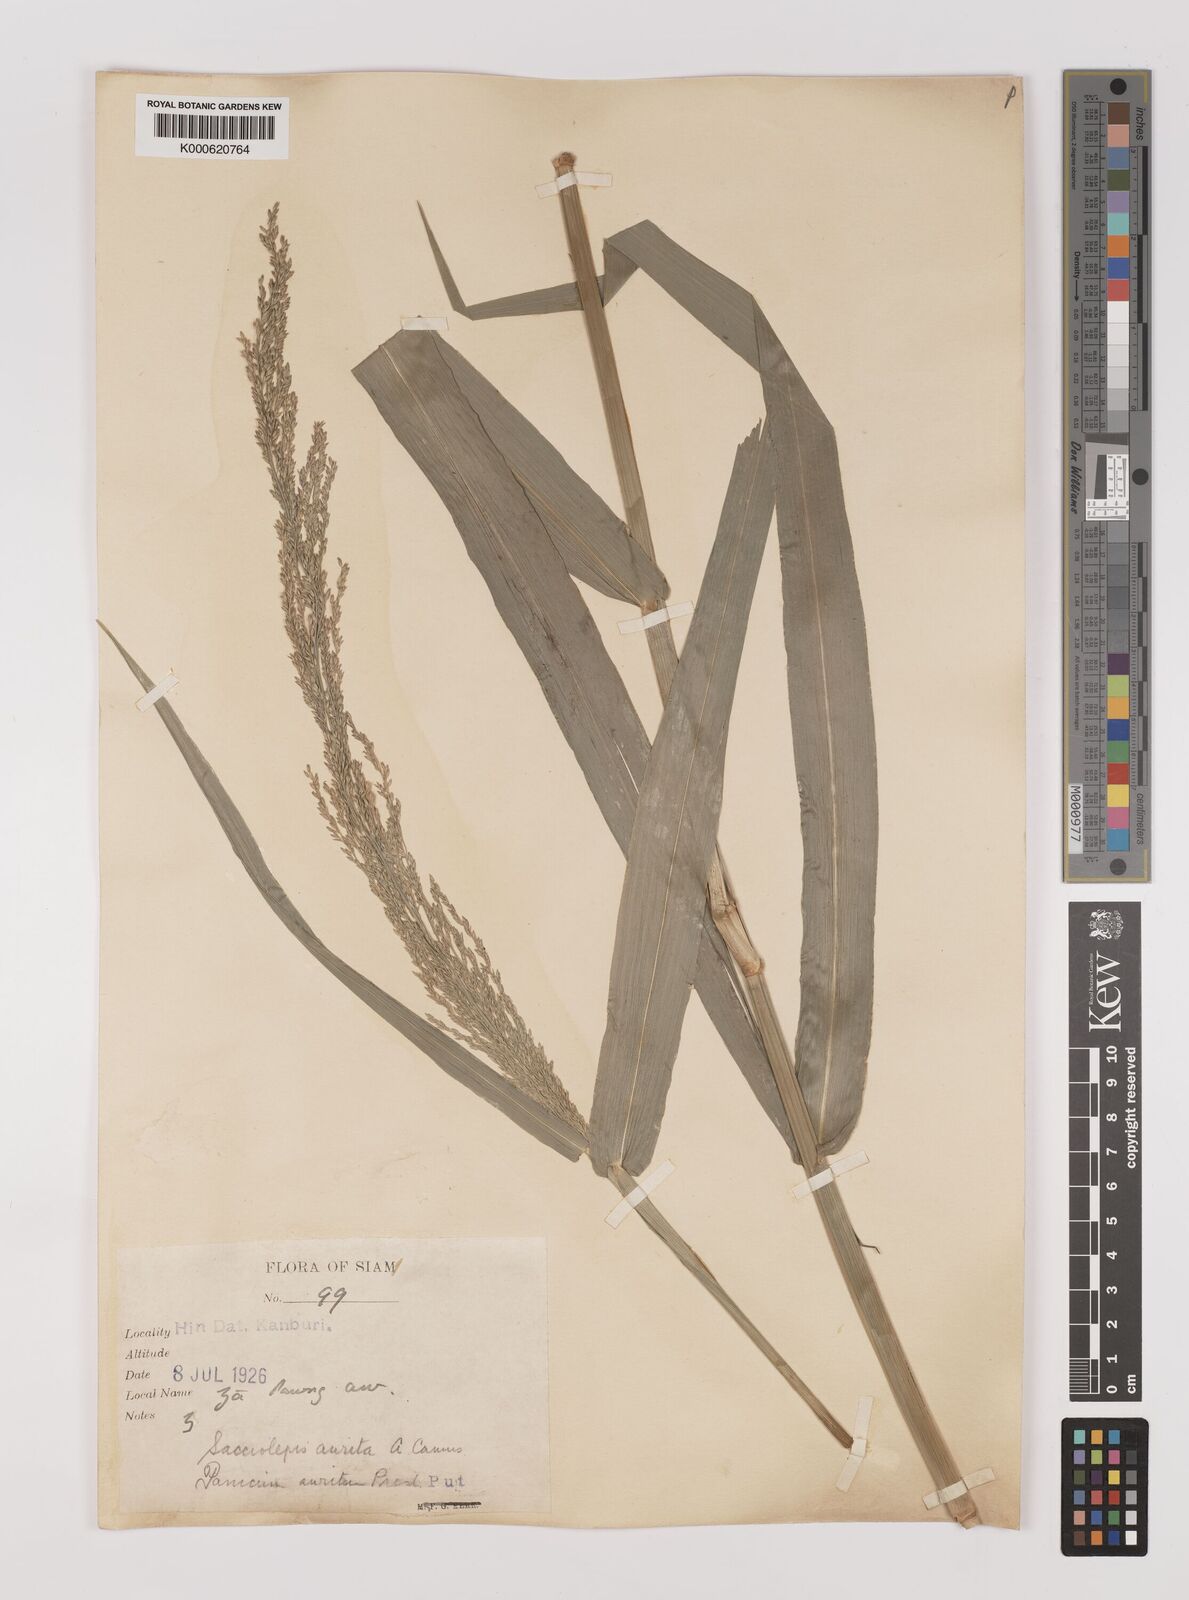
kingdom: Plantae
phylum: Tracheophyta
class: Liliopsida
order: Poales
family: Poaceae
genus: Hymenachne
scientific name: Hymenachne aurita
